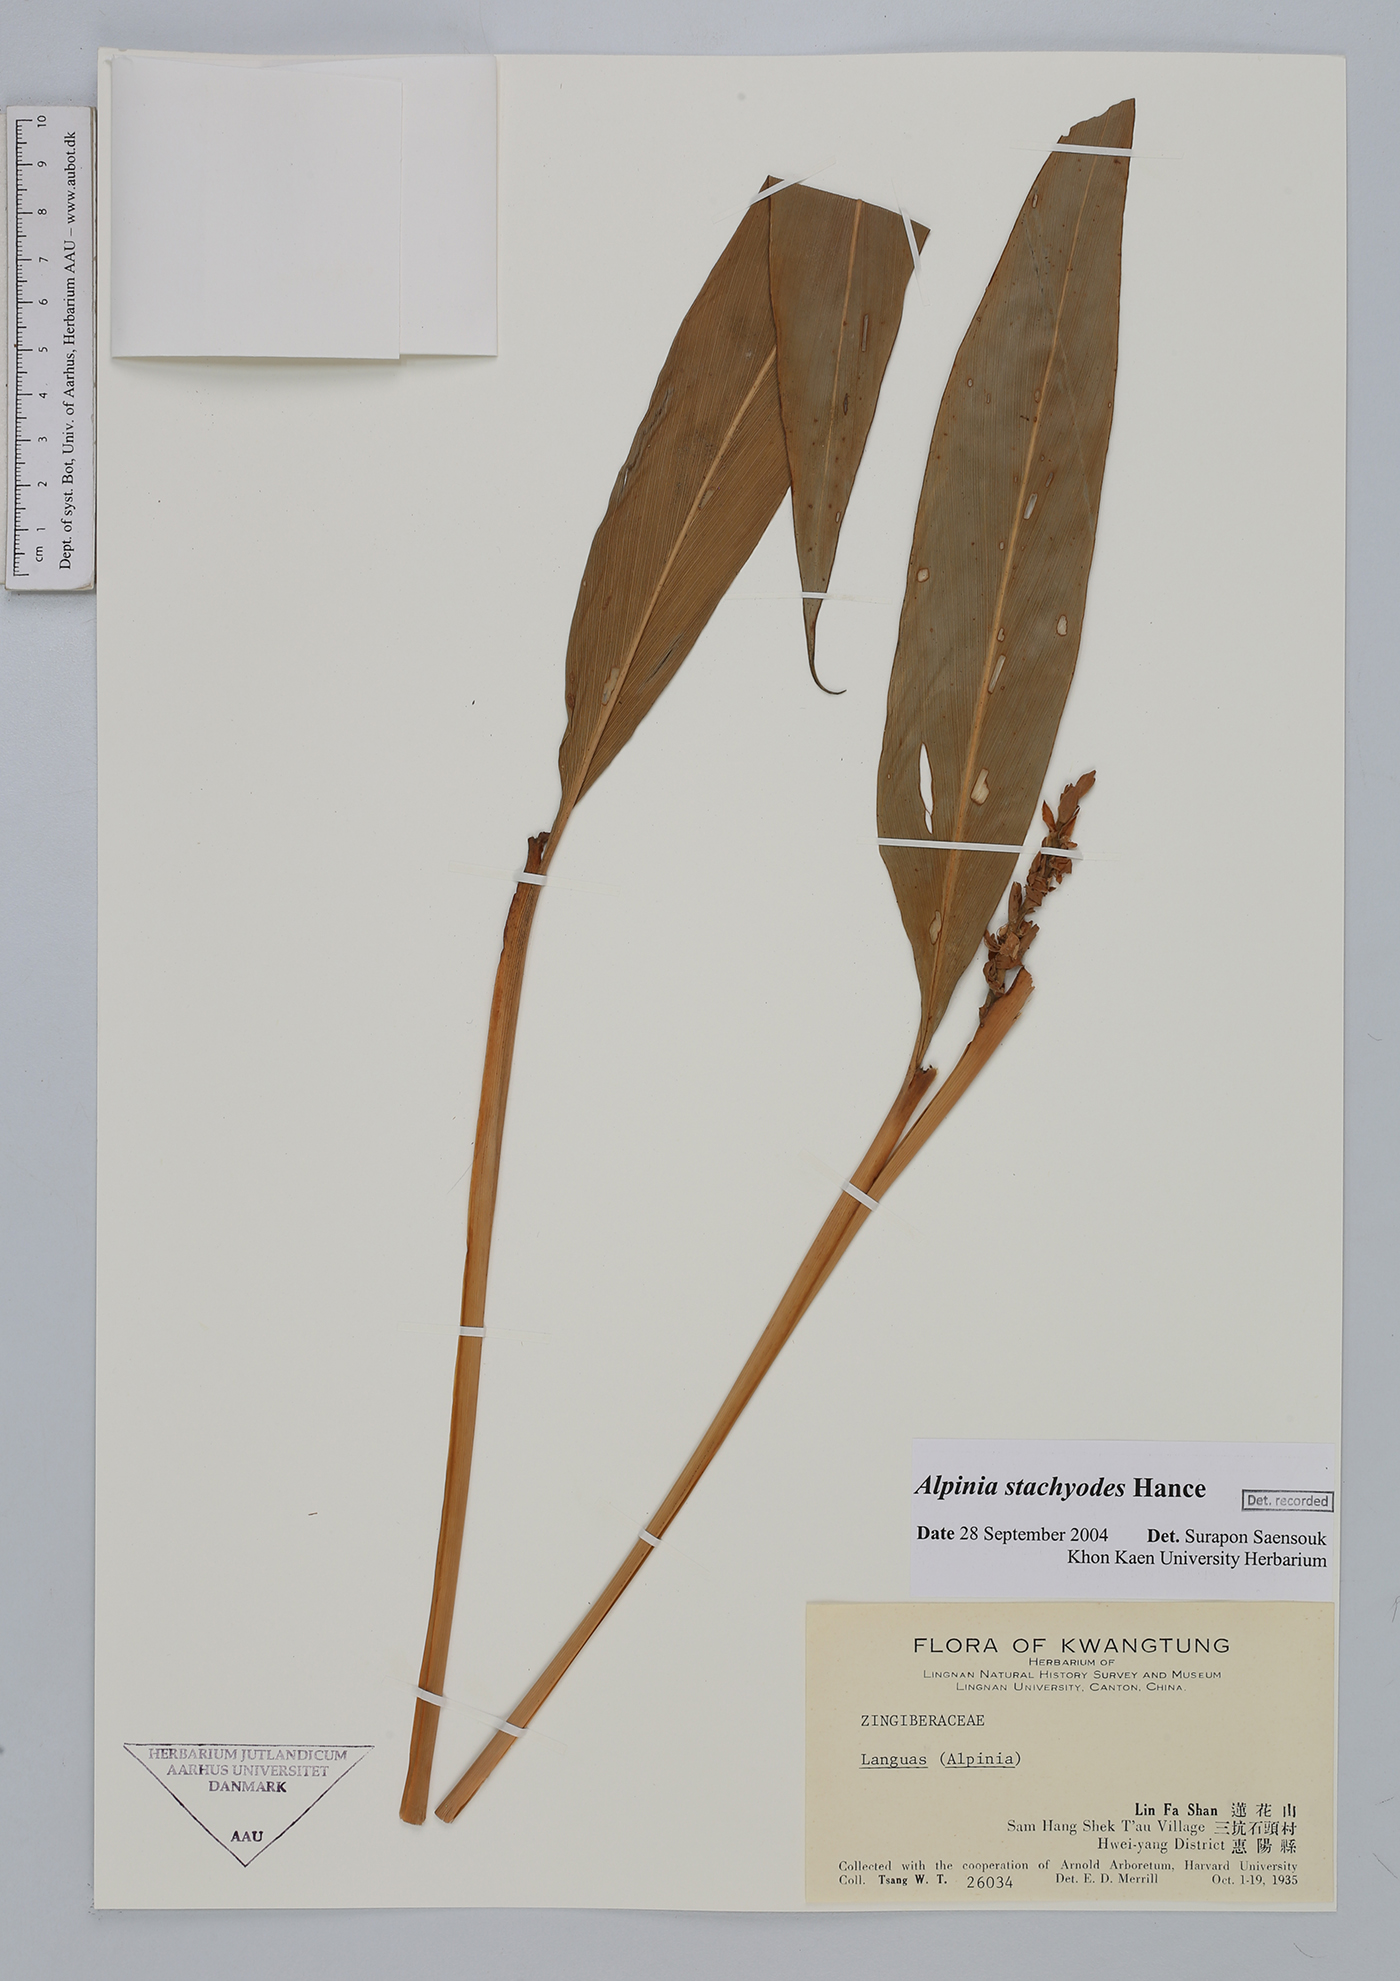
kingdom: Plantae
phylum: Tracheophyta
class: Liliopsida
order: Zingiberales
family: Zingiberaceae
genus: Alpinia
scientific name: Alpinia stachyodes
